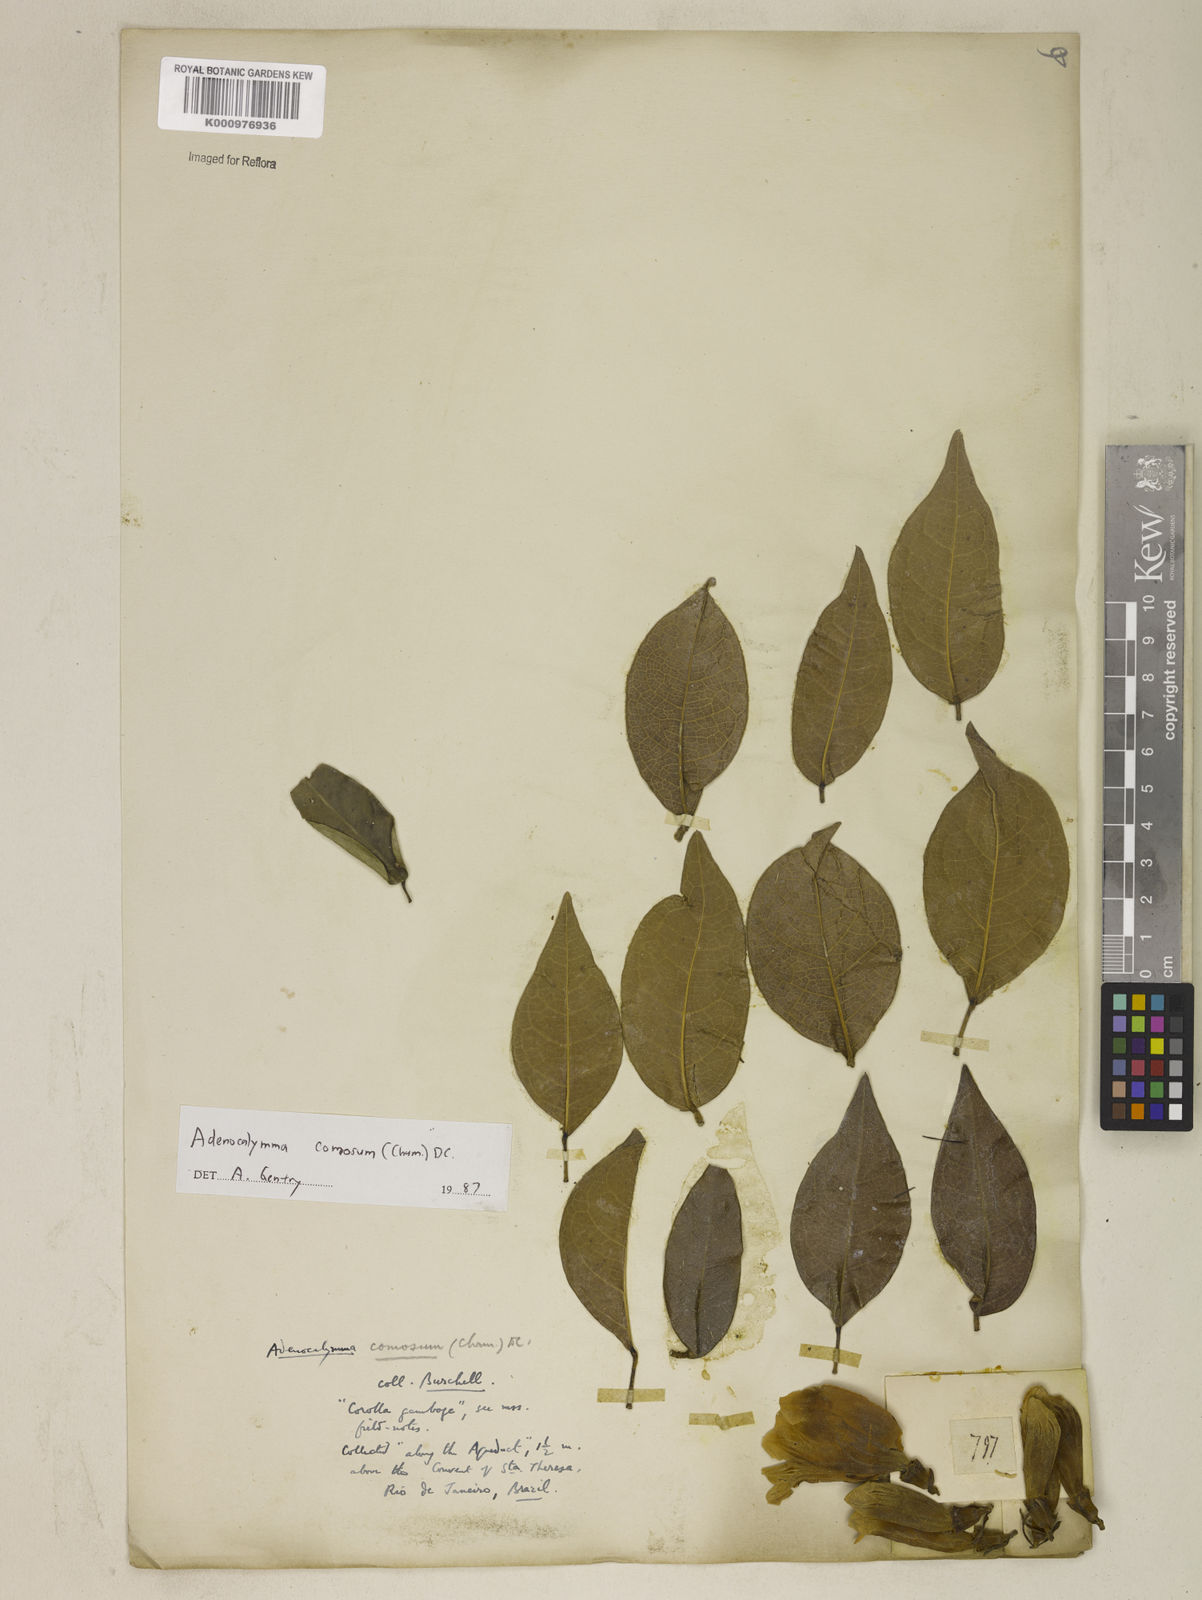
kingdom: Plantae
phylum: Tracheophyta
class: Magnoliopsida
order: Lamiales
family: Bignoniaceae
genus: Adenocalymma
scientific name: Adenocalymma acutissimum
